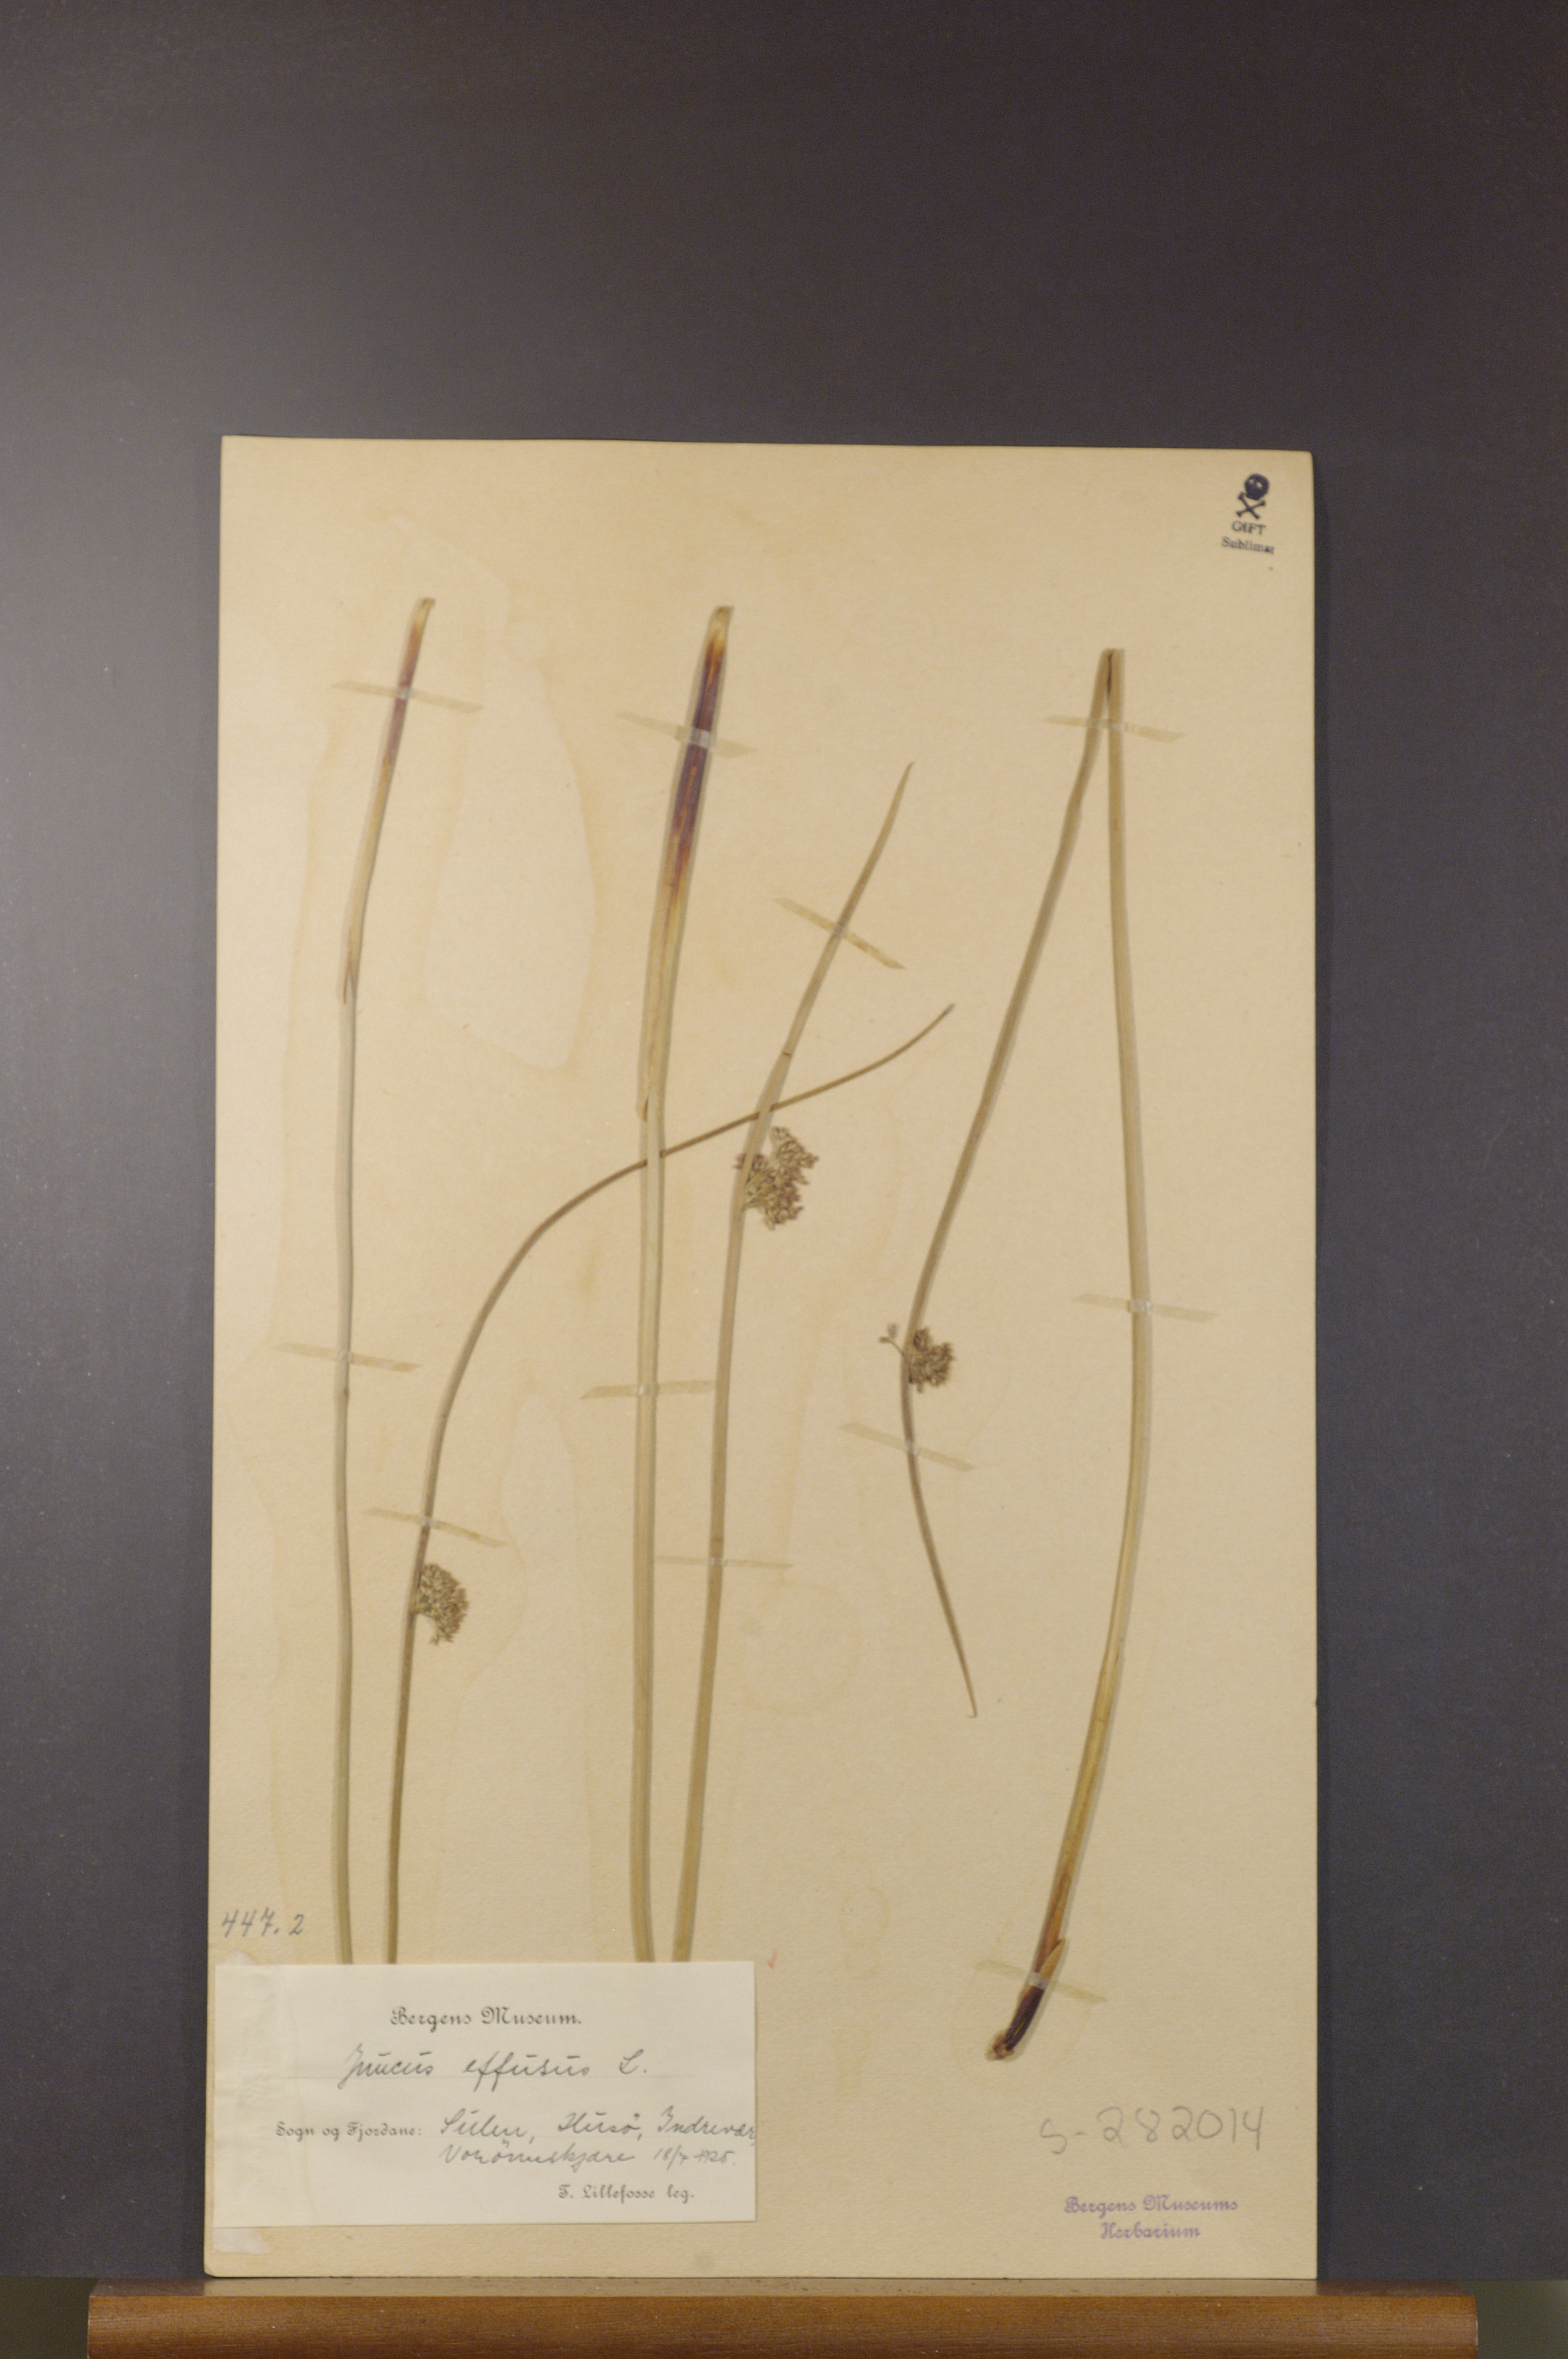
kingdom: Plantae
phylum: Tracheophyta
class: Liliopsida
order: Poales
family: Juncaceae
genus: Juncus
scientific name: Juncus effusus
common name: Soft rush
